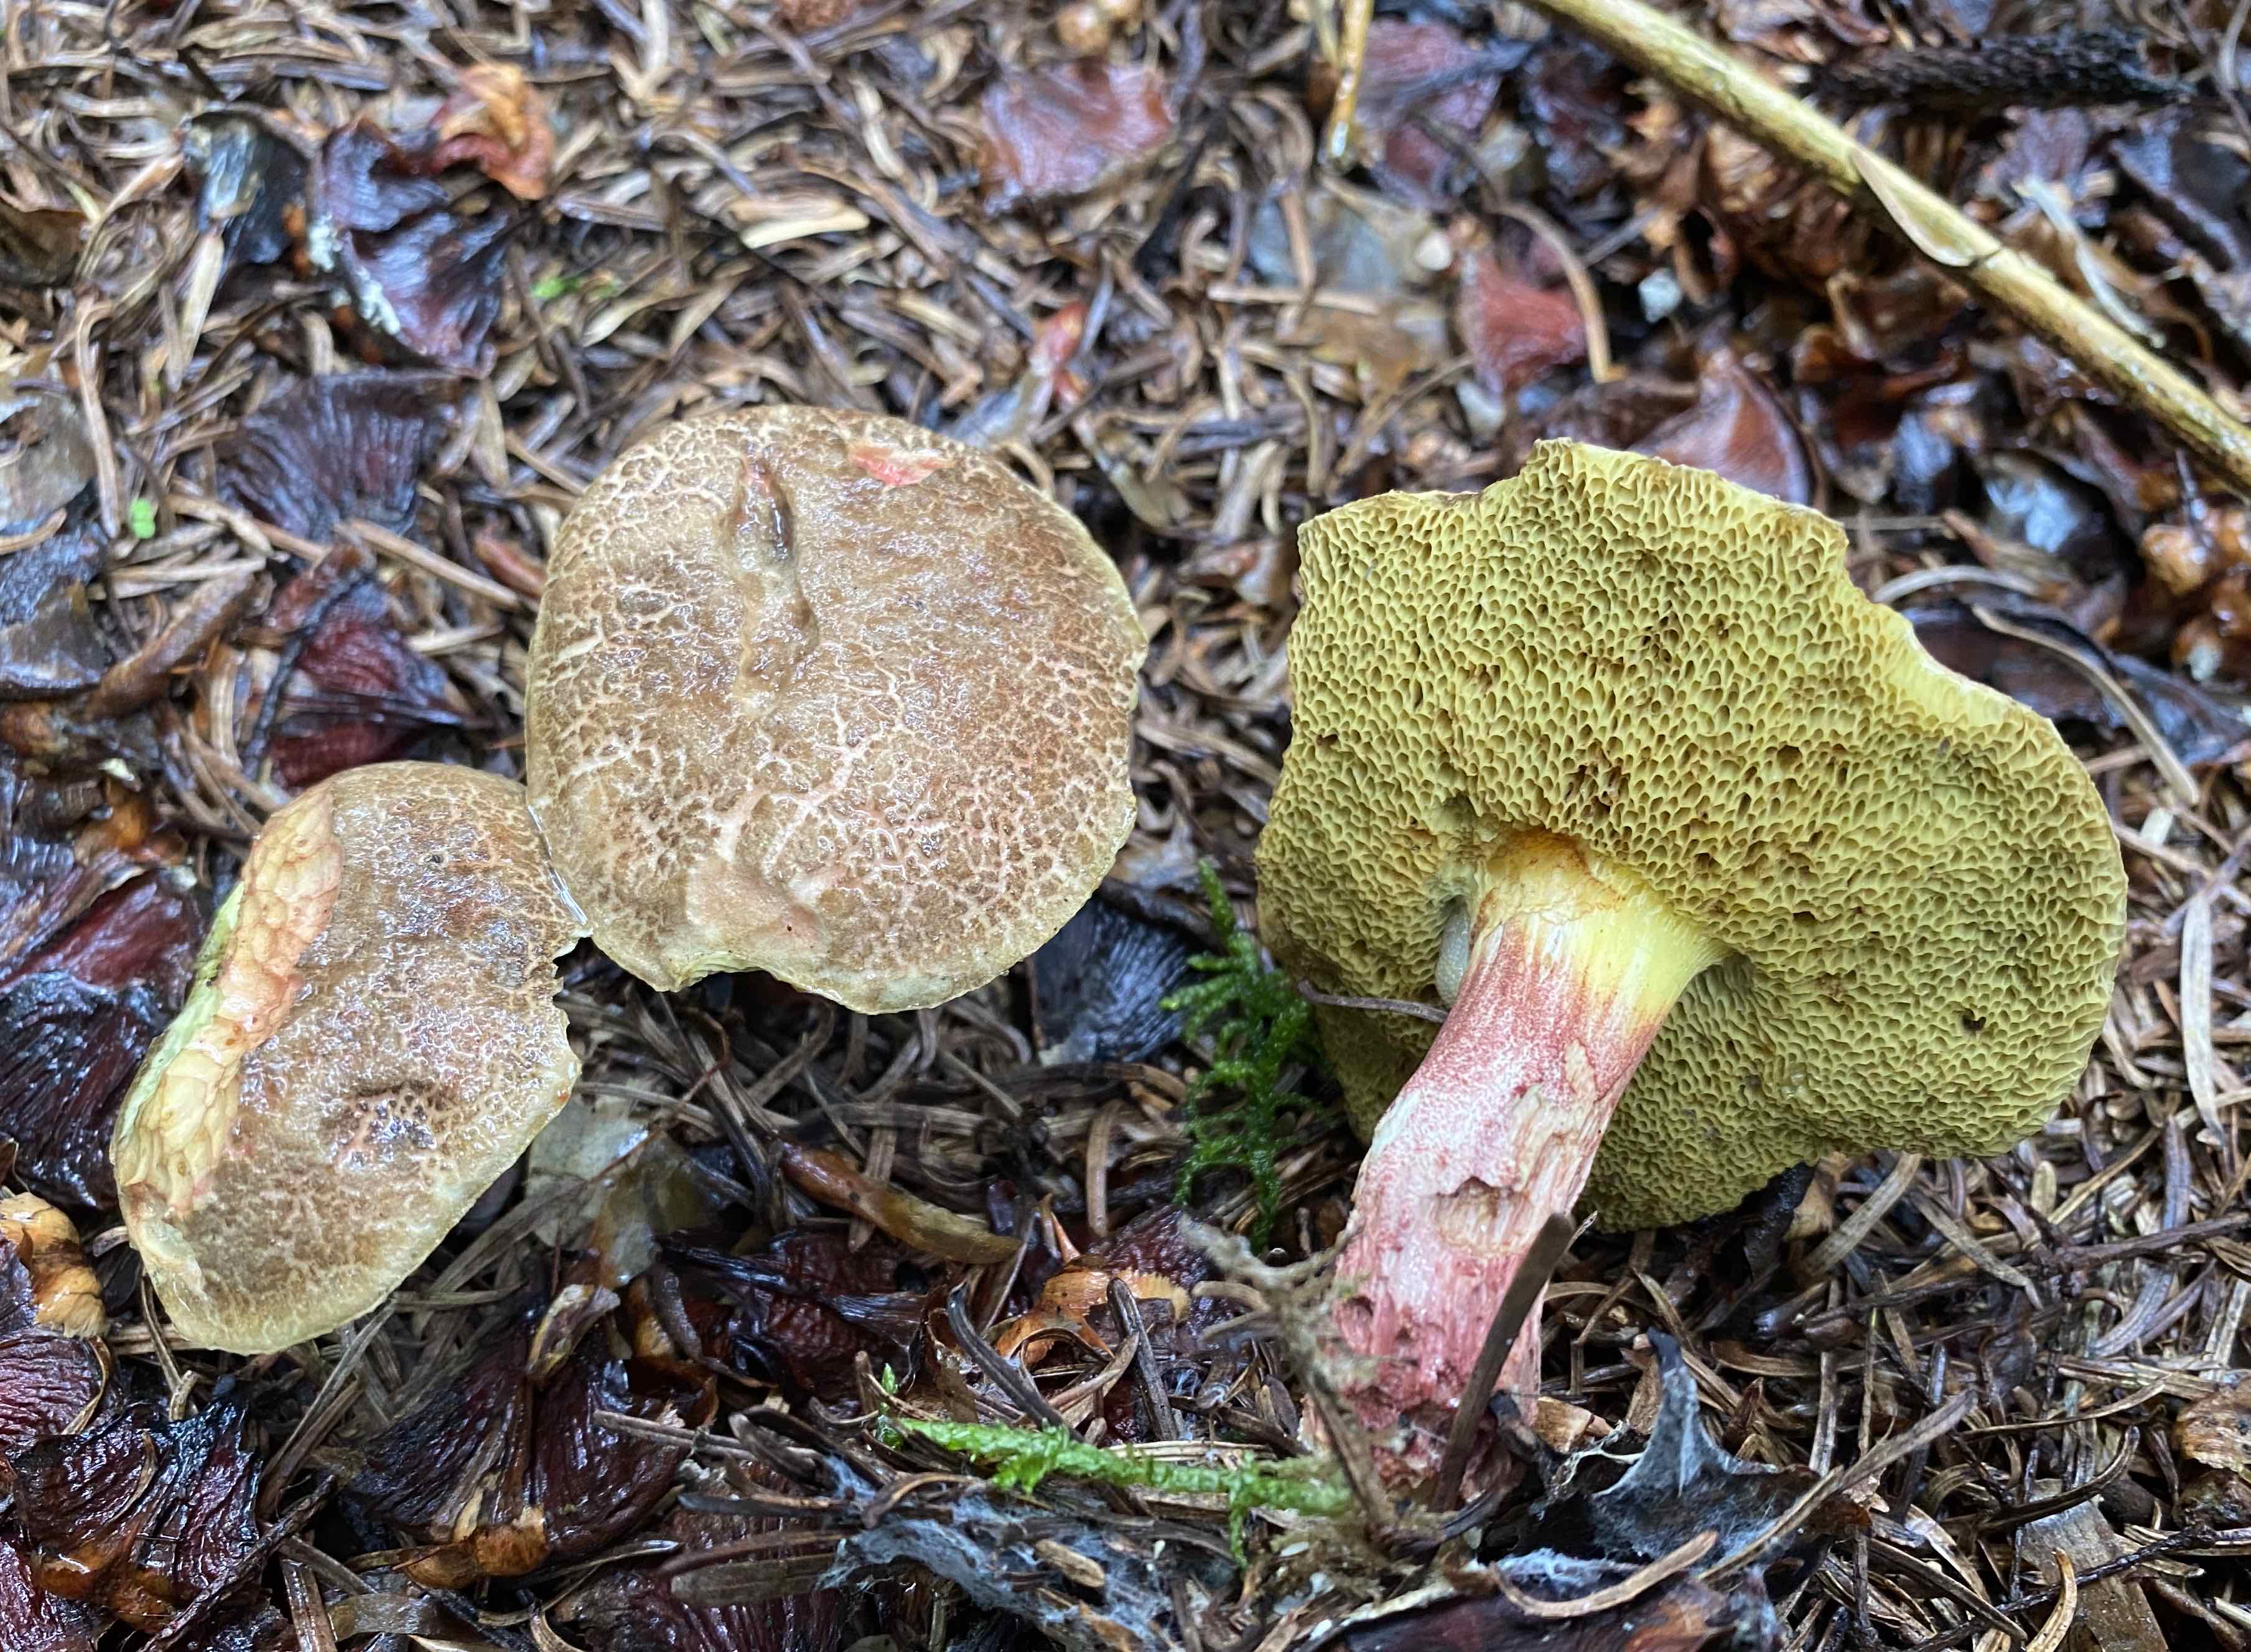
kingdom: Fungi
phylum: Basidiomycota
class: Agaricomycetes
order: Boletales
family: Boletaceae
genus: Xerocomellus
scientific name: Xerocomellus chrysenteron
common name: rødsprukken rørhat
